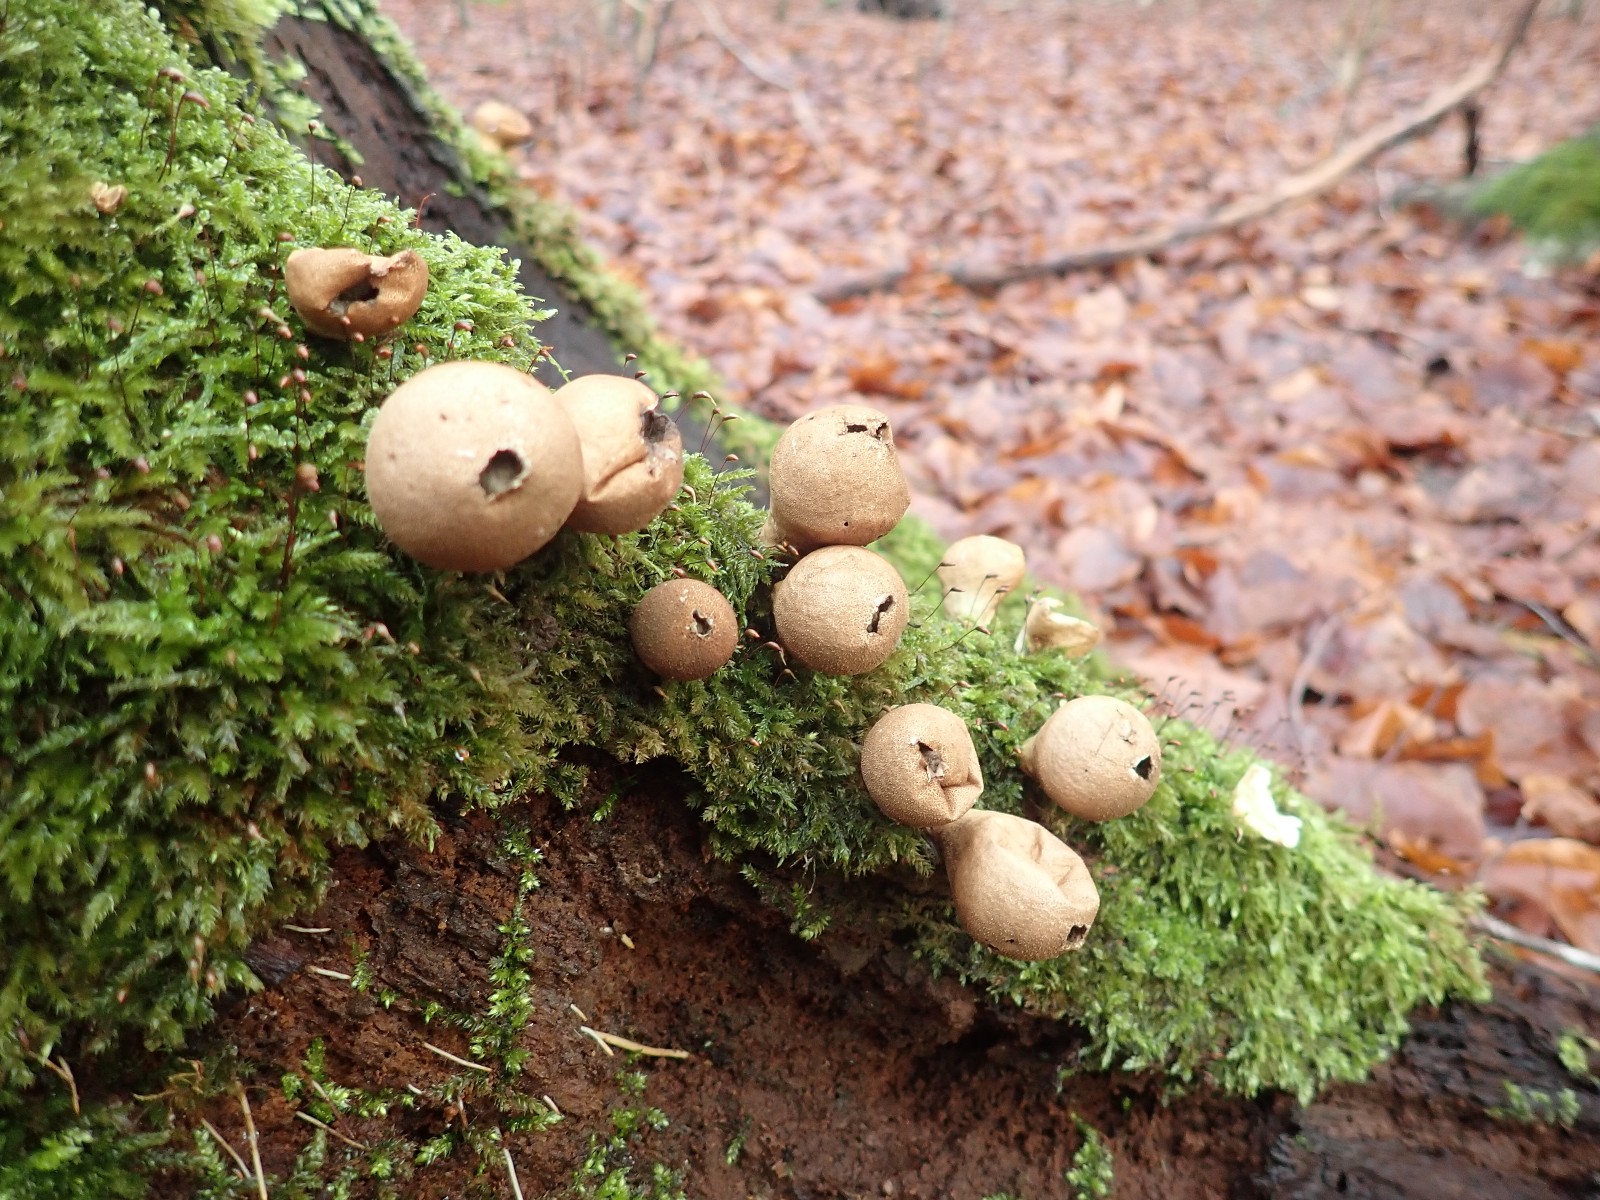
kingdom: Fungi
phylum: Basidiomycota
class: Agaricomycetes
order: Agaricales
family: Lycoperdaceae
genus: Apioperdon
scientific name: Apioperdon pyriforme
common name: pære-støvbold
